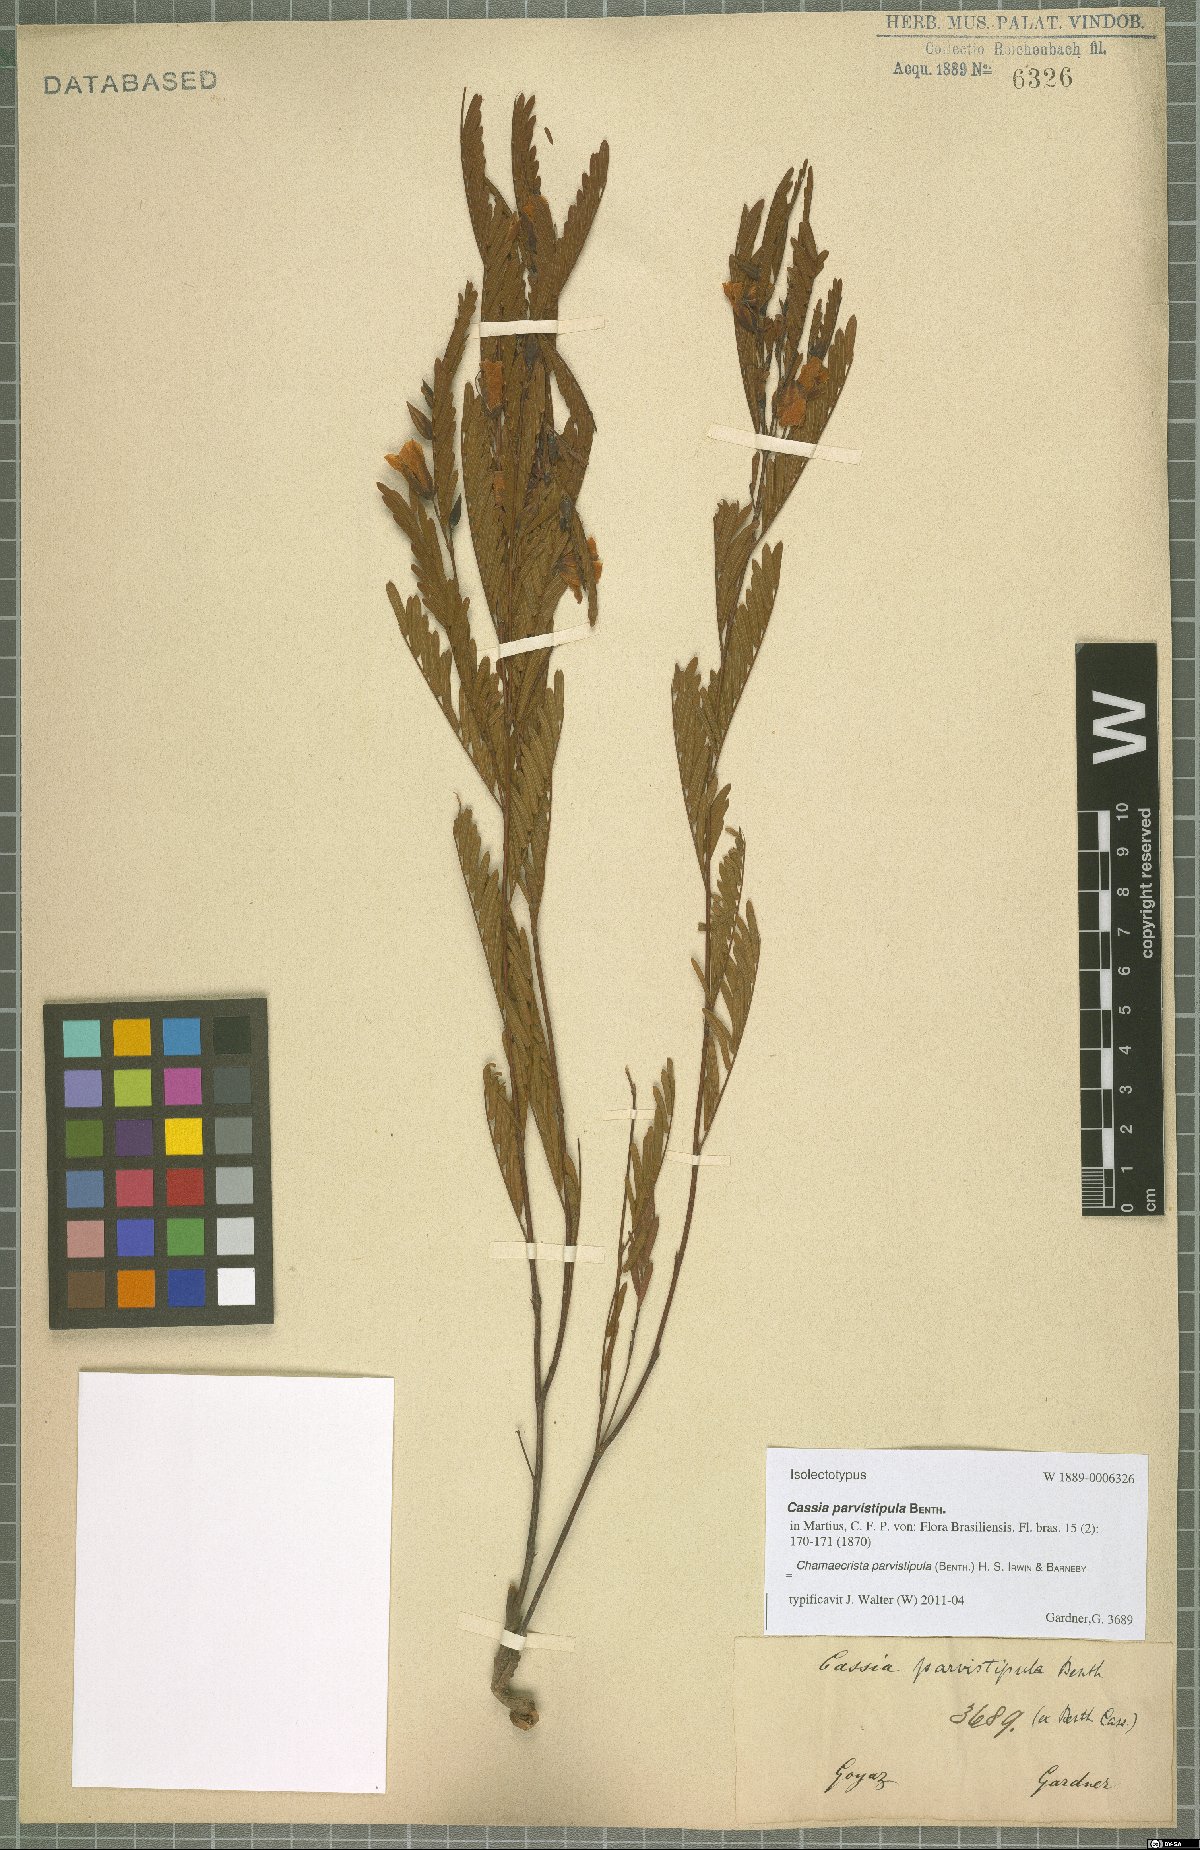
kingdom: Plantae
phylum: Tracheophyta
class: Magnoliopsida
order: Fabales
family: Fabaceae
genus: Chamaecrista
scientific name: Chamaecrista parvistipula
